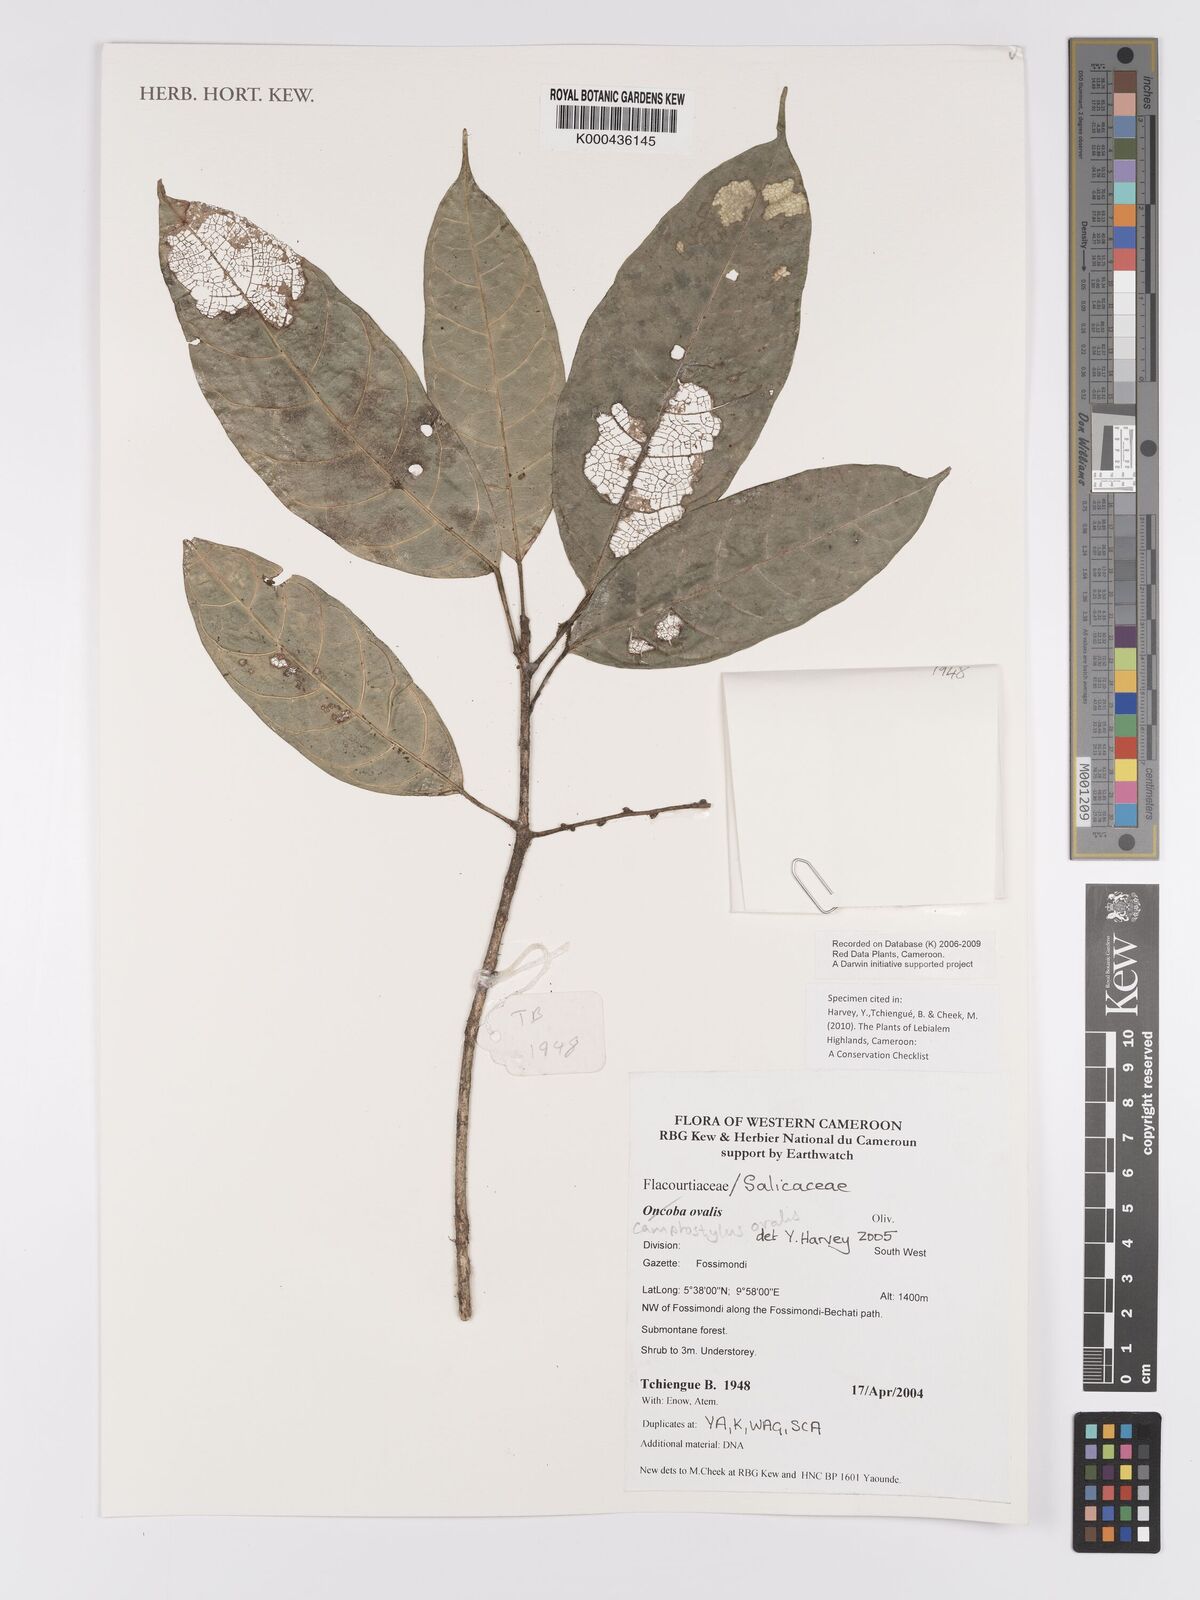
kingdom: Plantae
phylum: Tracheophyta
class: Magnoliopsida
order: Malpighiales
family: Achariaceae
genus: Camptostylus
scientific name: Camptostylus ovalis
